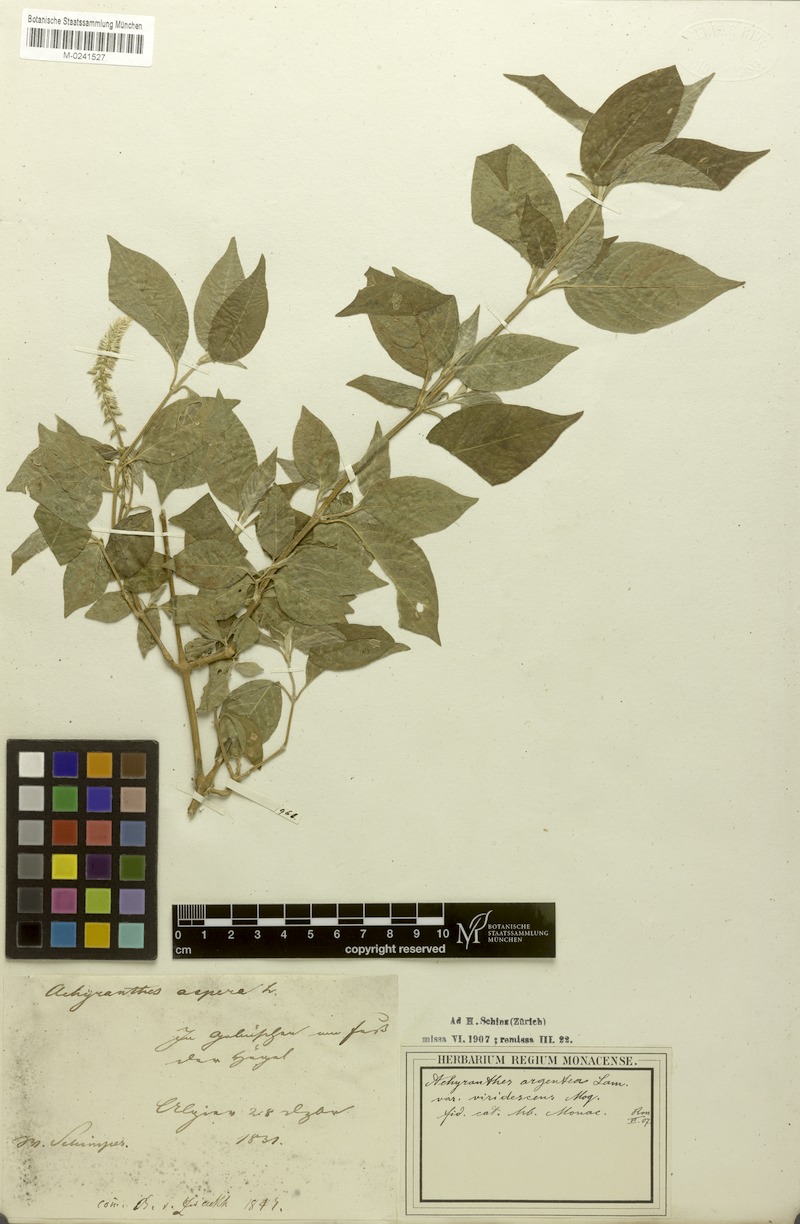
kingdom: Plantae
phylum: Tracheophyta
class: Magnoliopsida
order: Caryophyllales
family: Amaranthaceae
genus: Achyranthes
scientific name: Achyranthes aspera
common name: Devil's horsewhip
